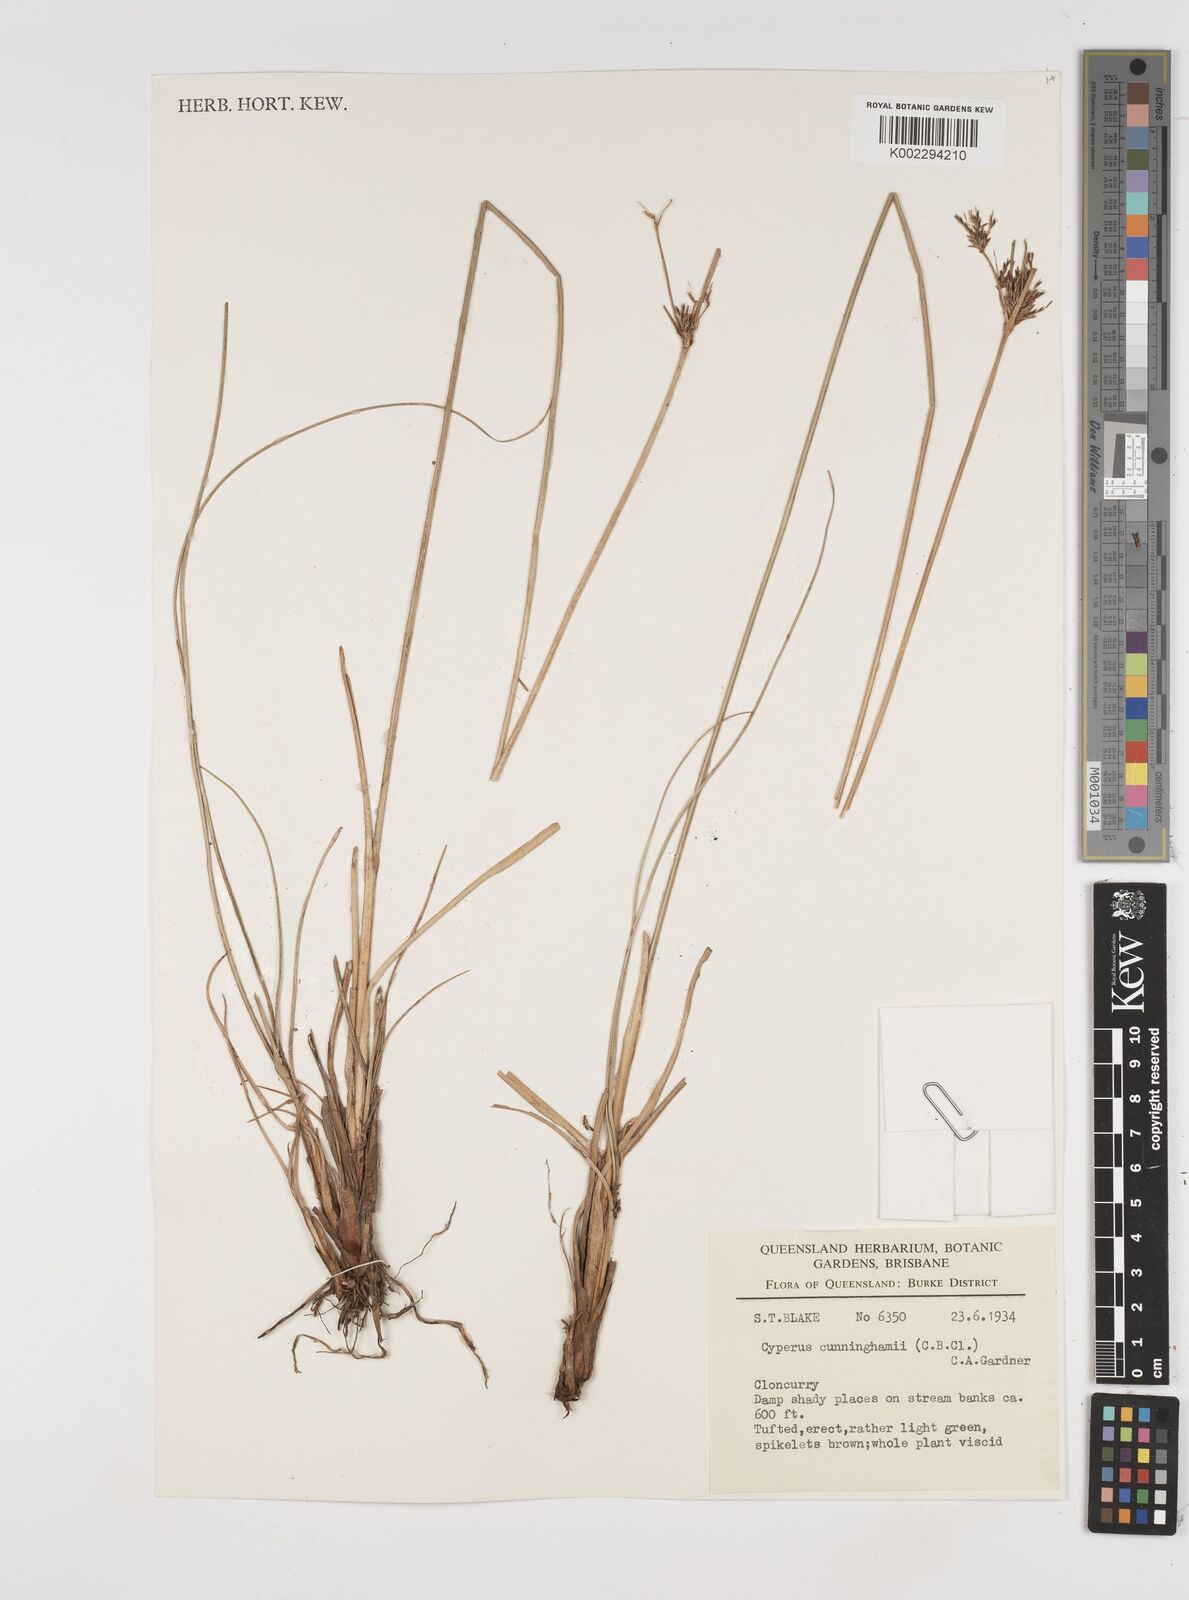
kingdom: Plantae
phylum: Tracheophyta
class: Liliopsida
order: Poales
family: Cyperaceae
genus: Cyperus
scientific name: Cyperus cunninghamii
